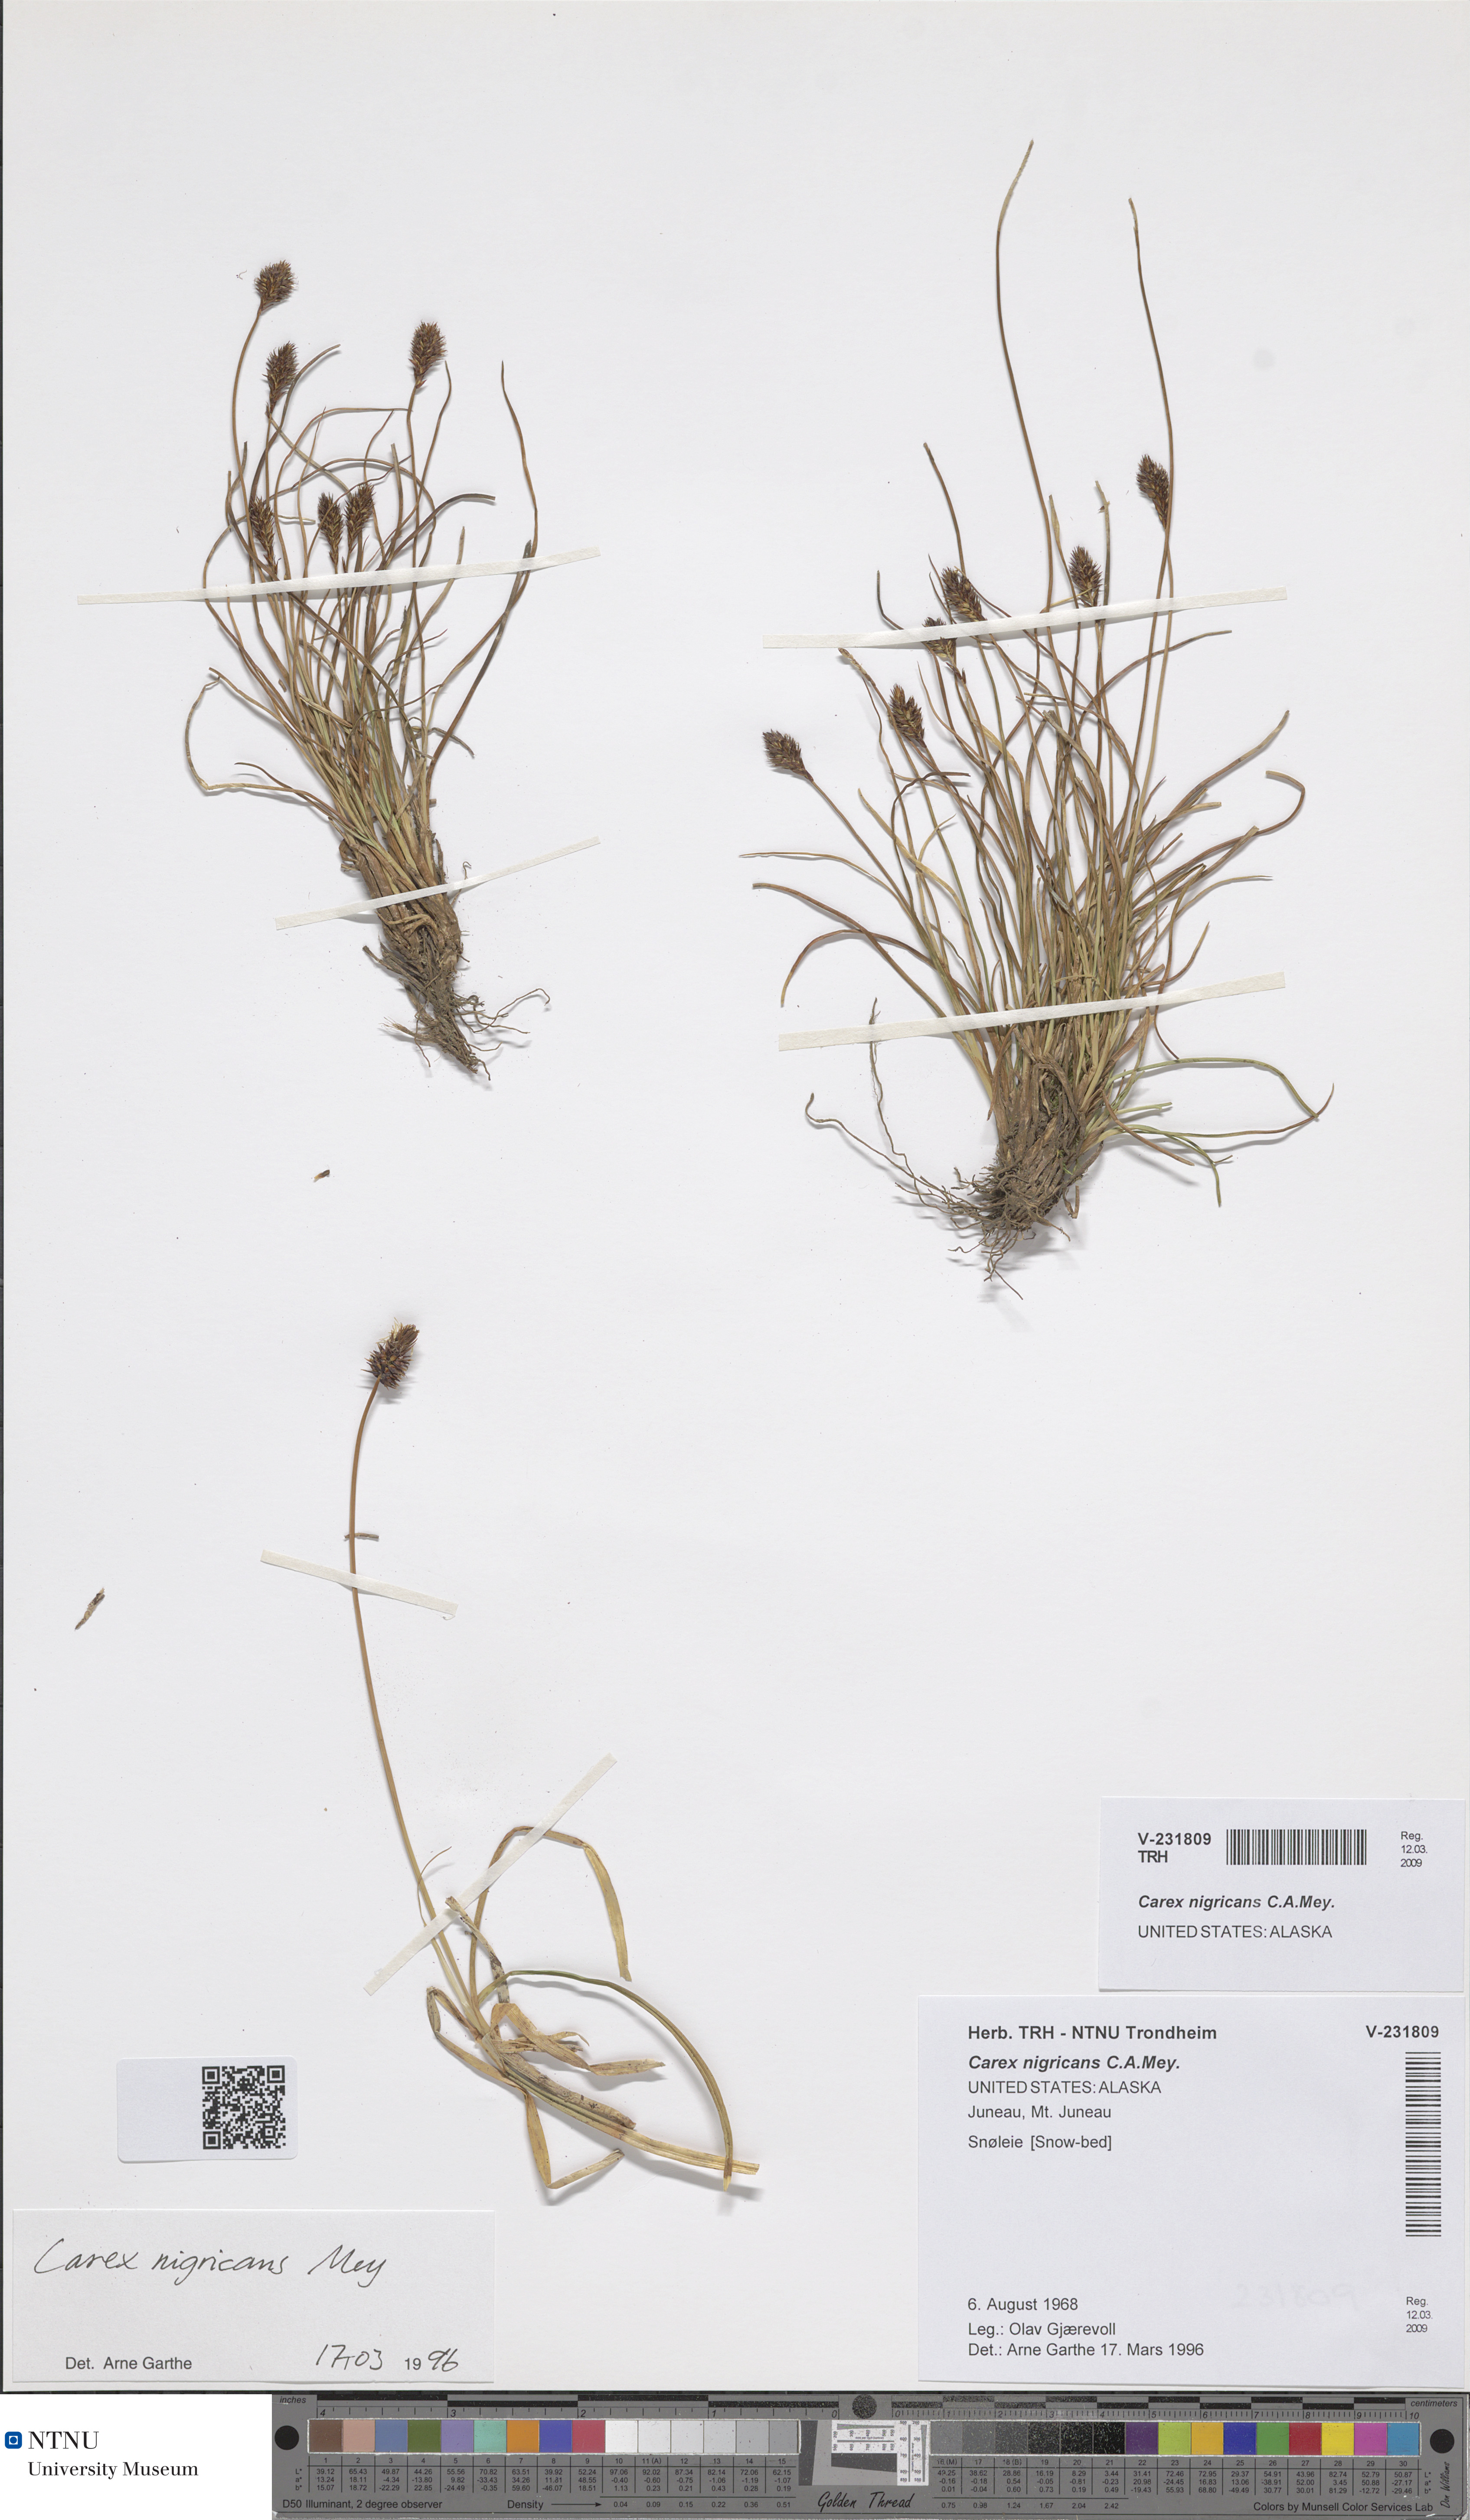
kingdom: Plantae
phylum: Tracheophyta
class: Liliopsida
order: Poales
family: Cyperaceae
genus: Carex
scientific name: Carex nigricans
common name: Black alpine sedge
